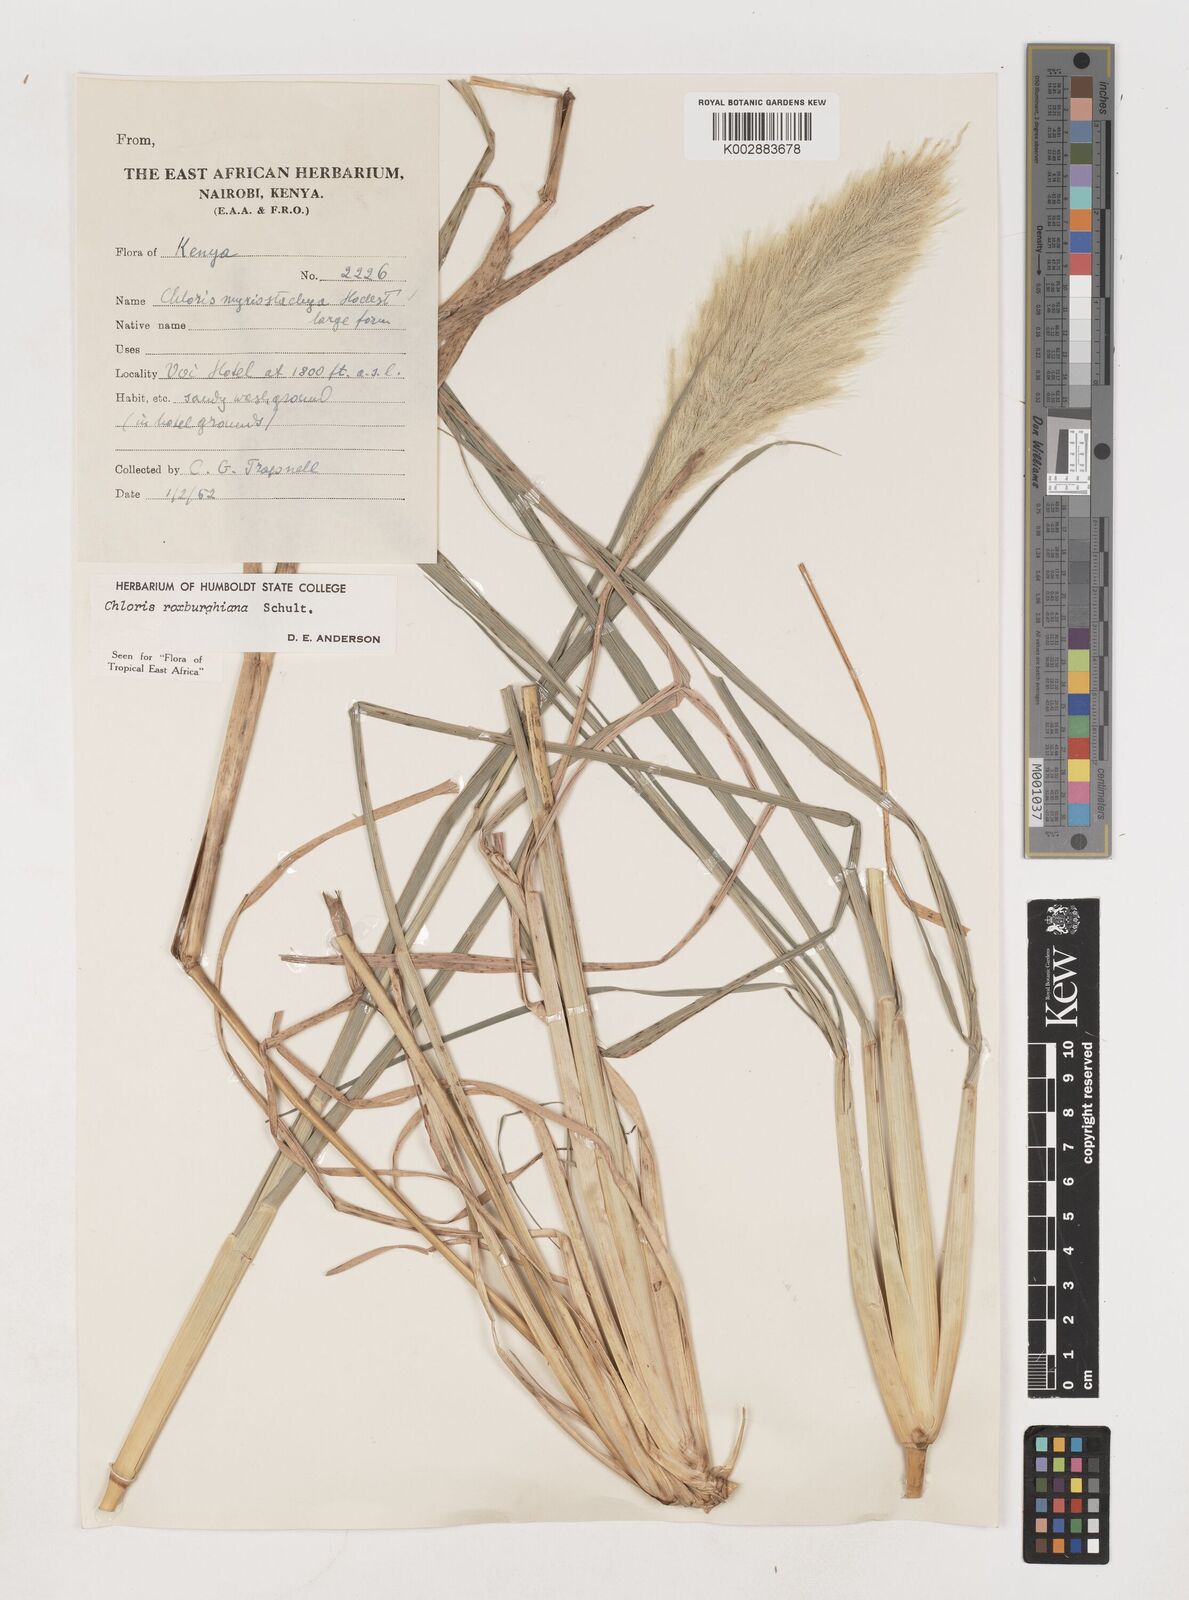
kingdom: Plantae
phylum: Tracheophyta
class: Liliopsida
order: Poales
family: Poaceae
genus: Tetrapogon
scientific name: Tetrapogon roxburghiana
